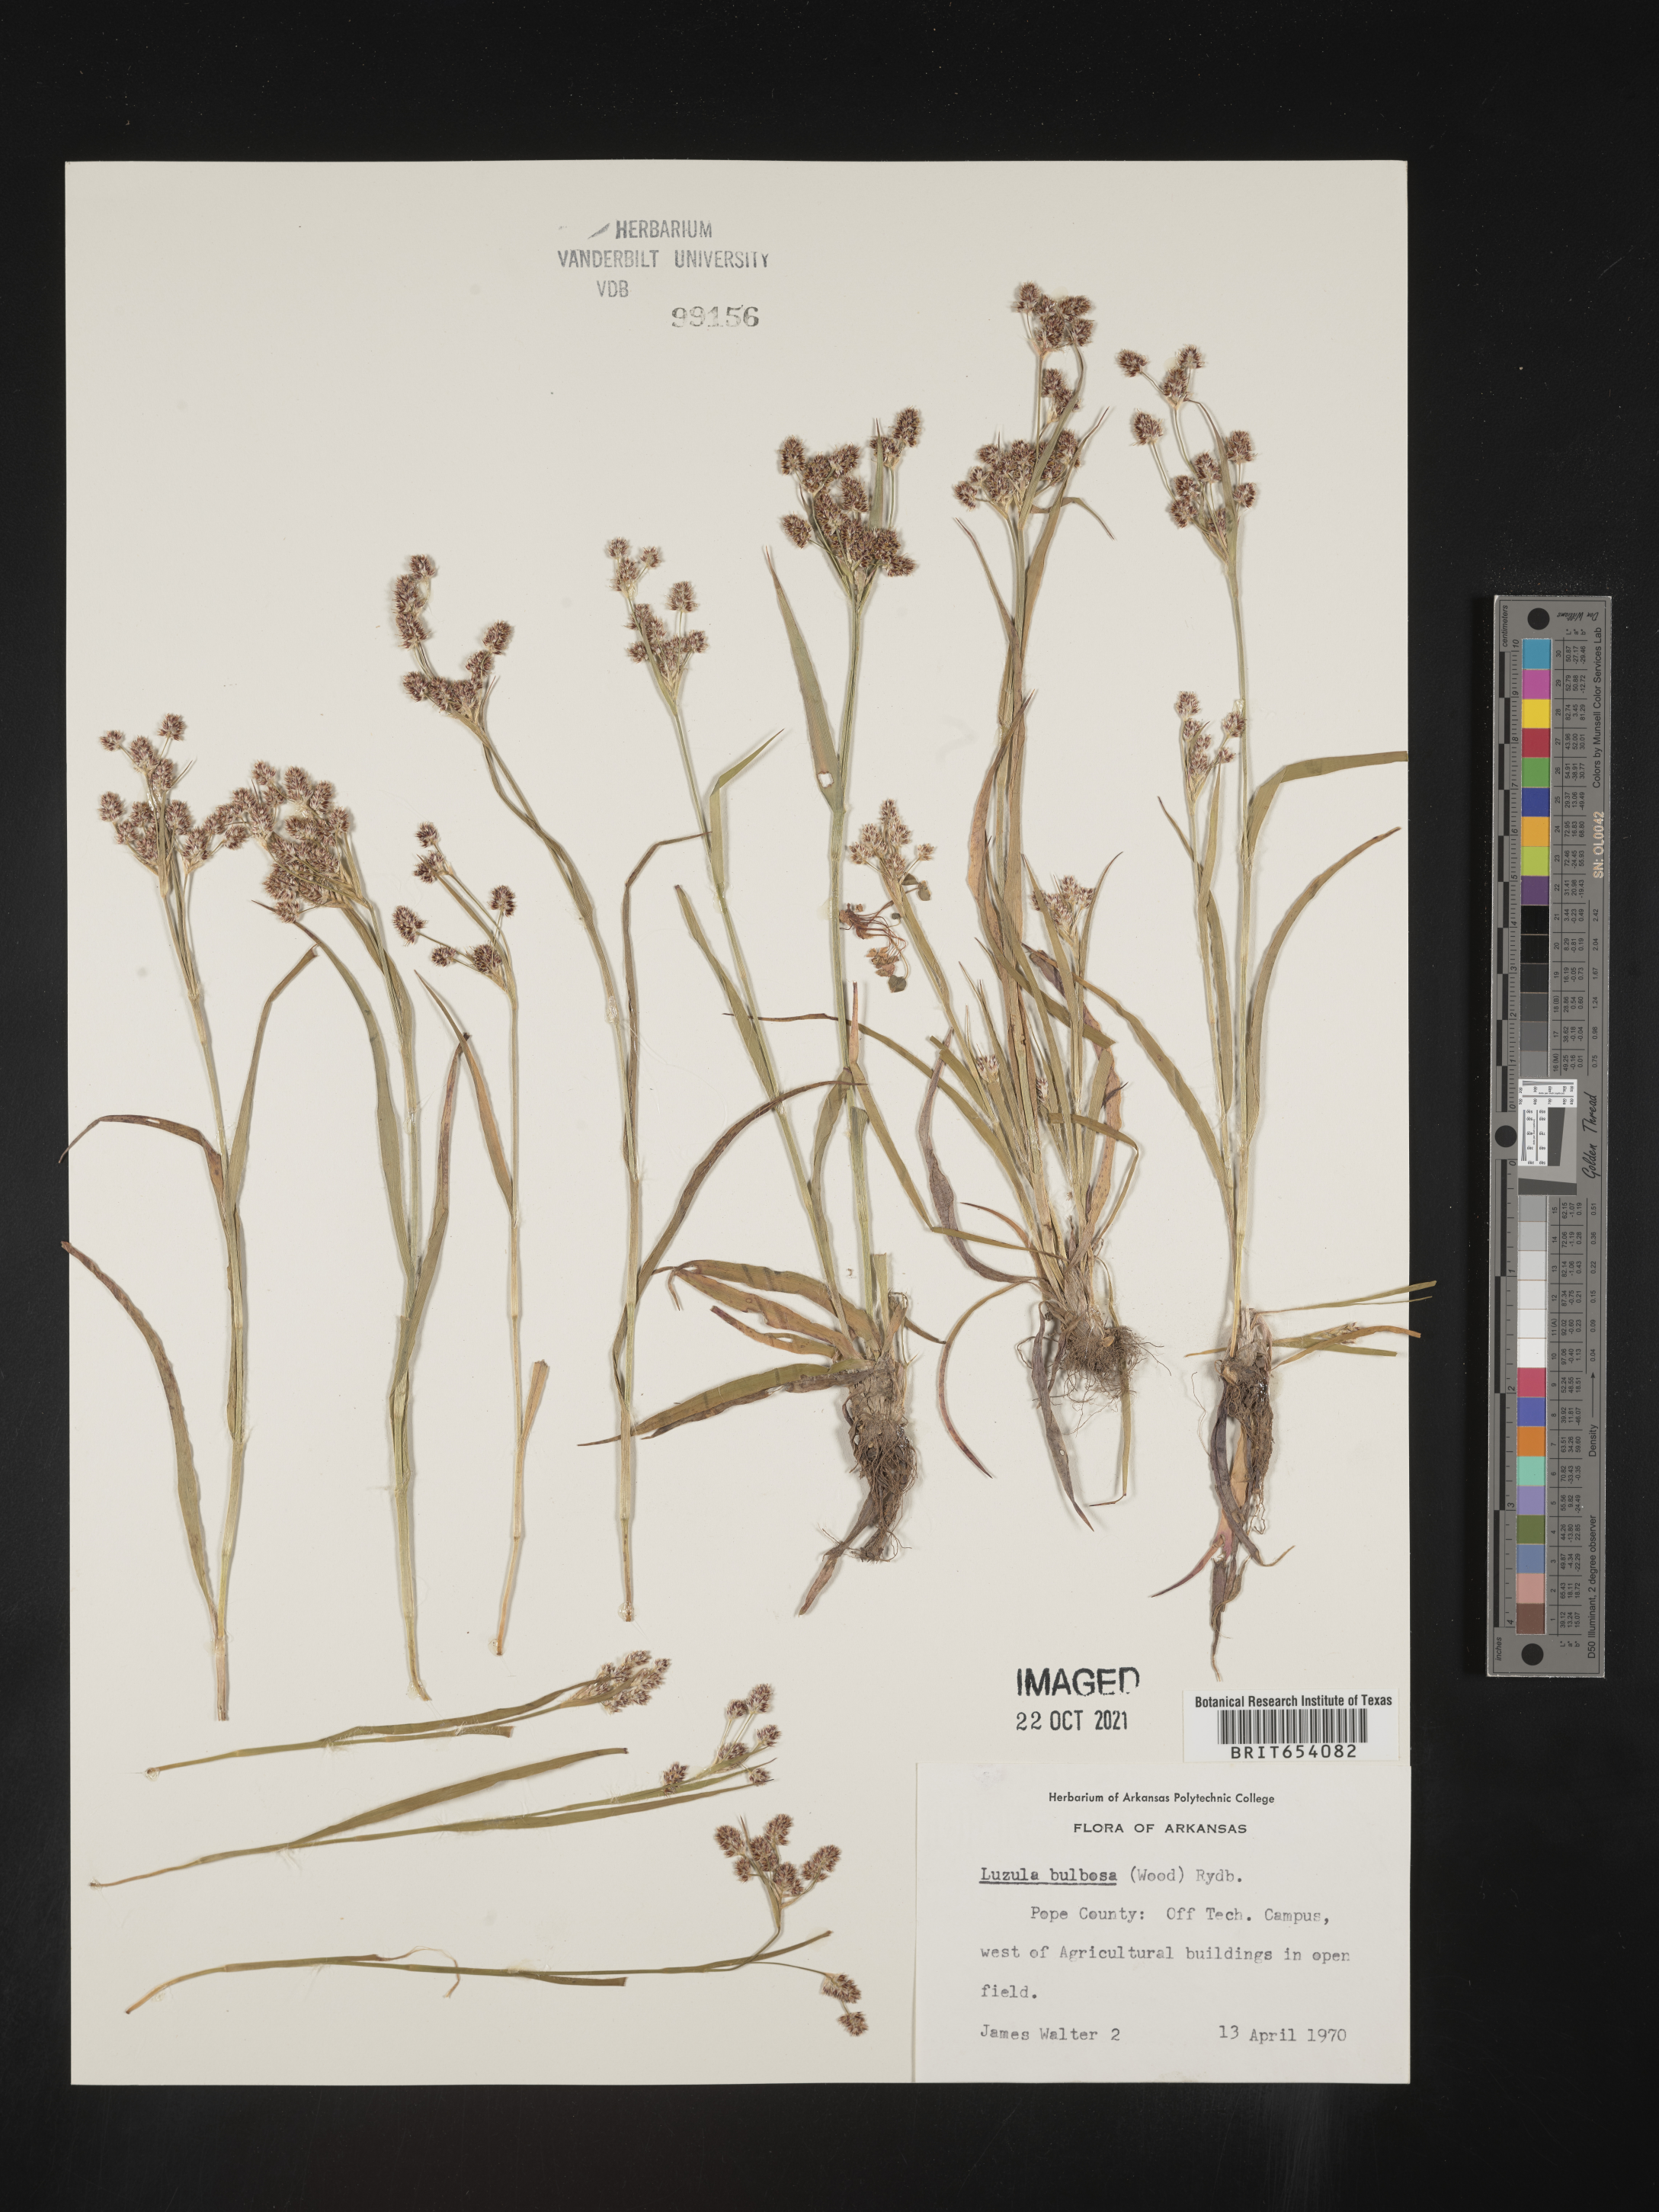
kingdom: Plantae
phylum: Tracheophyta
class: Liliopsida
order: Poales
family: Juncaceae
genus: Luzula
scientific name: Luzula bulbosa
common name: Bulbous woodrush
